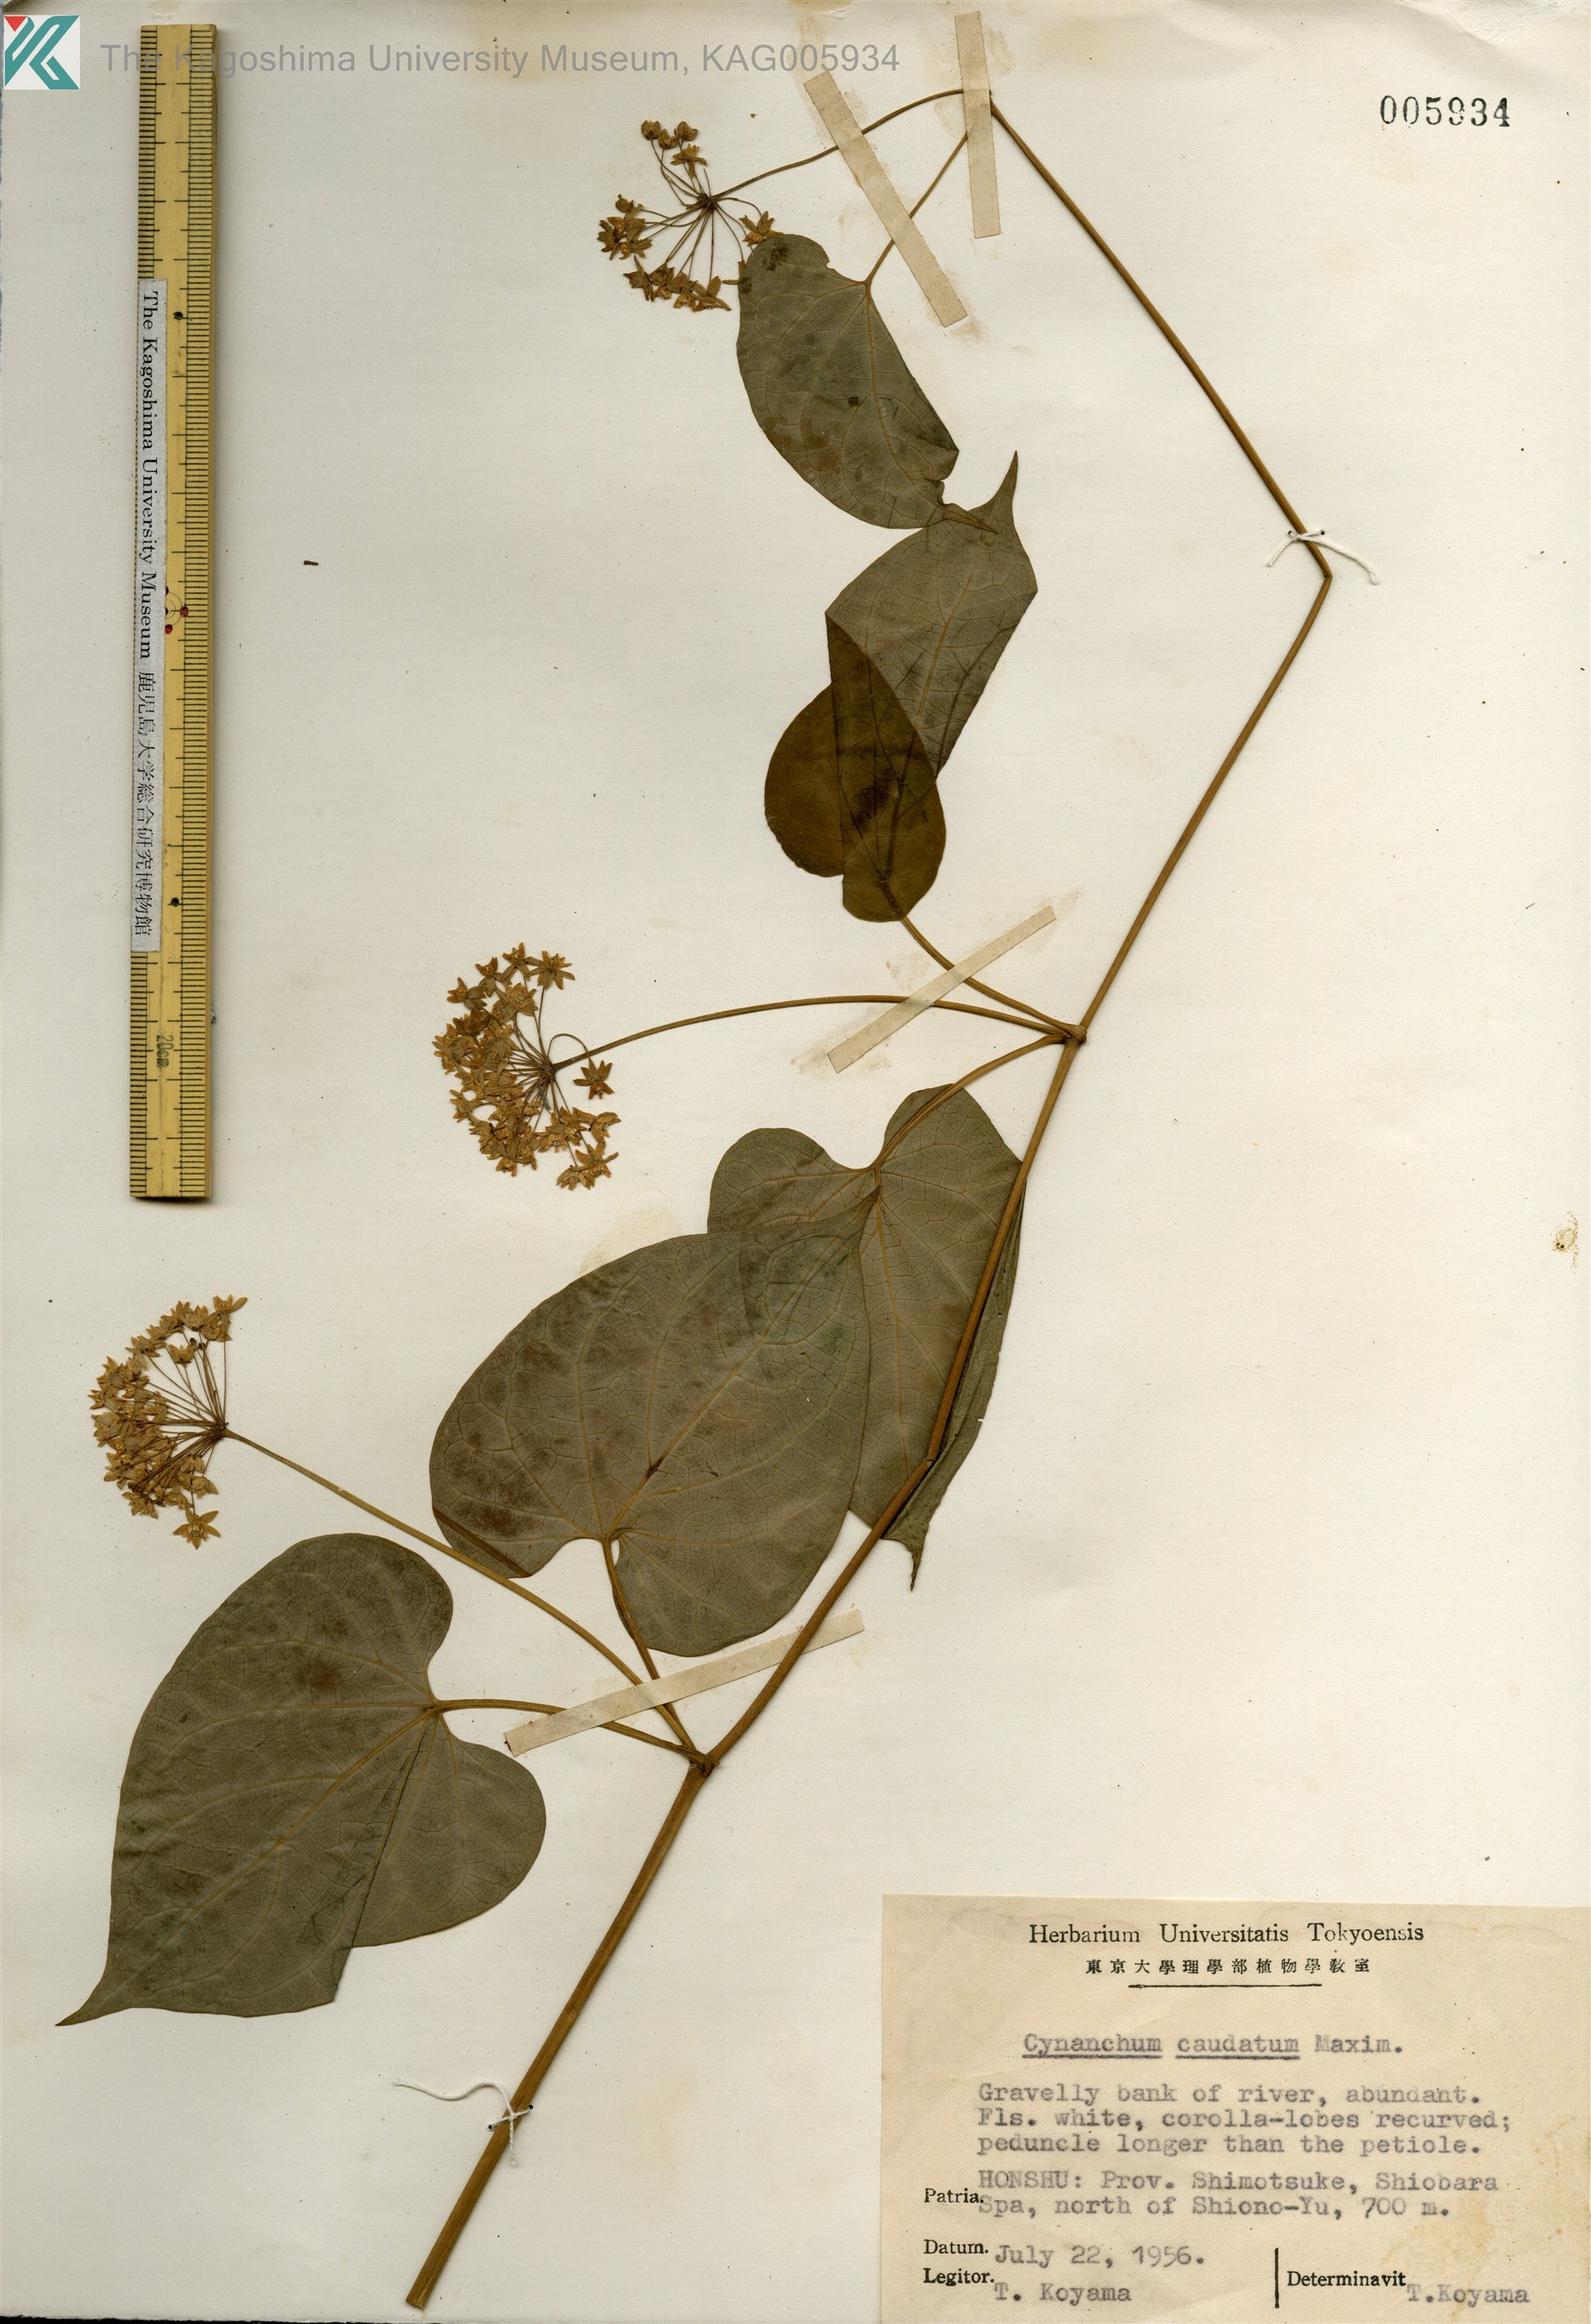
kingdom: Plantae
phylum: Tracheophyta
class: Magnoliopsida
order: Gentianales
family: Apocynaceae
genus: Orthosia
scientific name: Orthosia virgata
